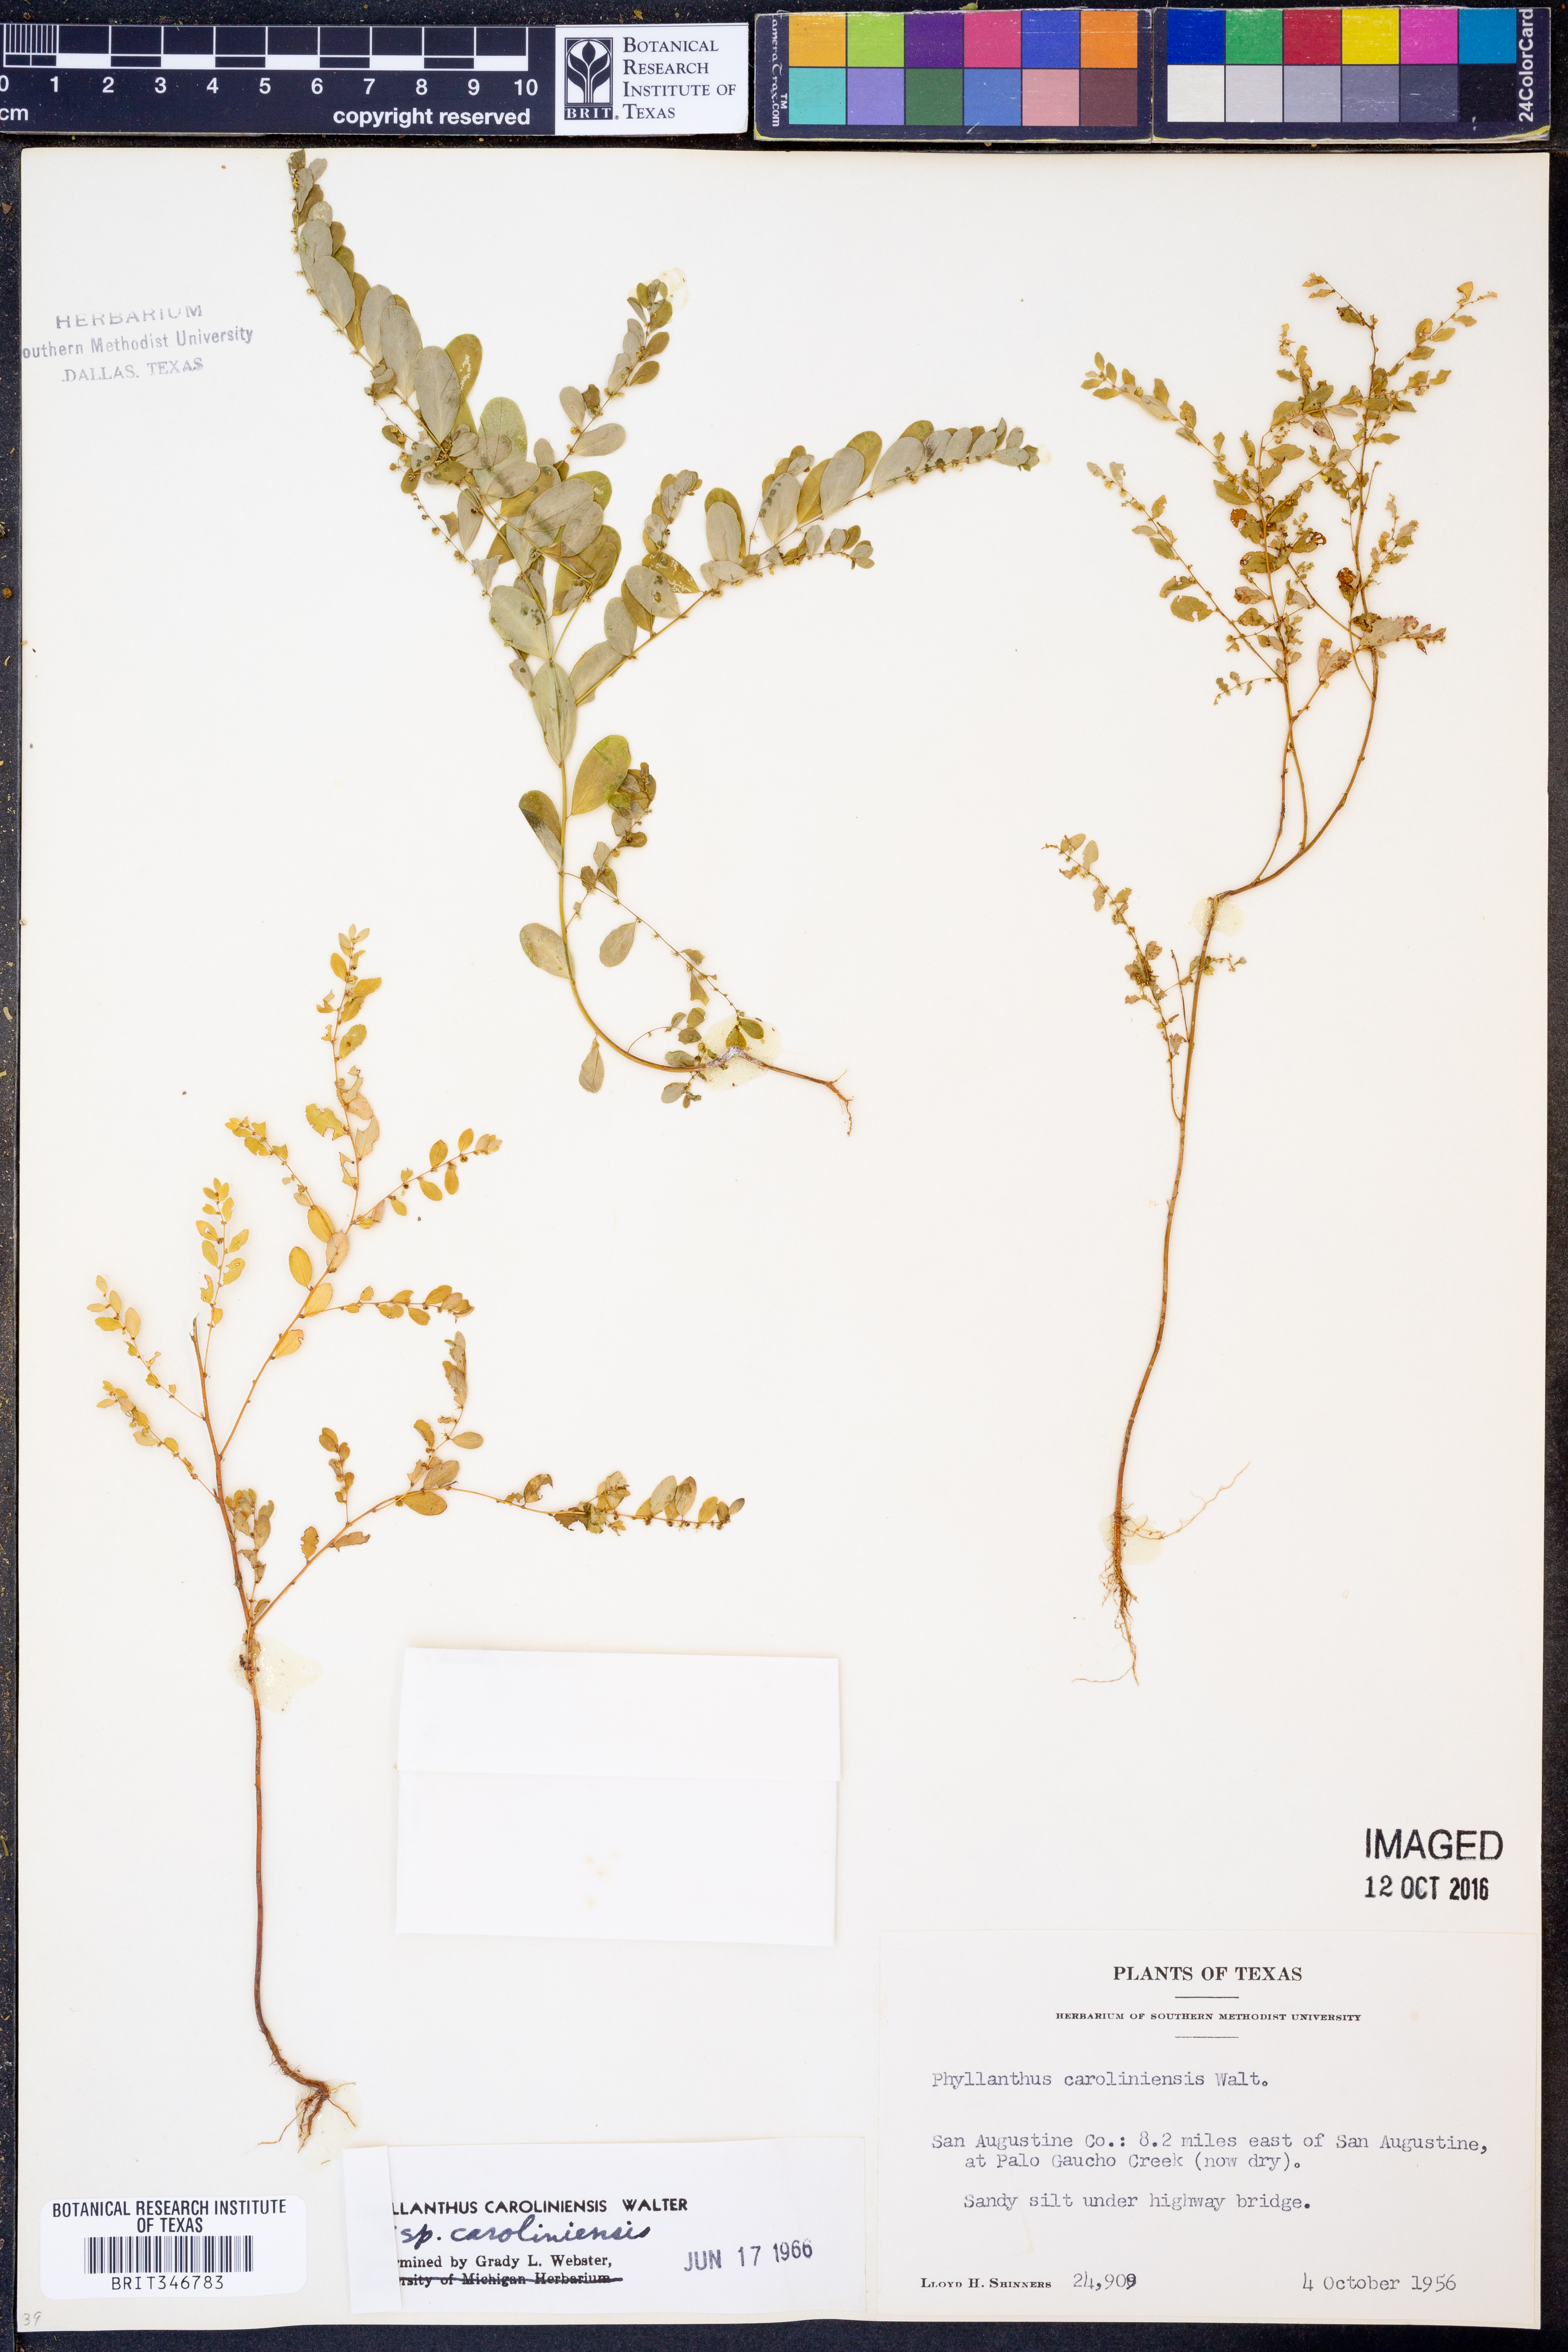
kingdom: Plantae
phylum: Tracheophyta
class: Magnoliopsida
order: Malpighiales
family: Phyllanthaceae
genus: Phyllanthus
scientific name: Phyllanthus caroliniensis
